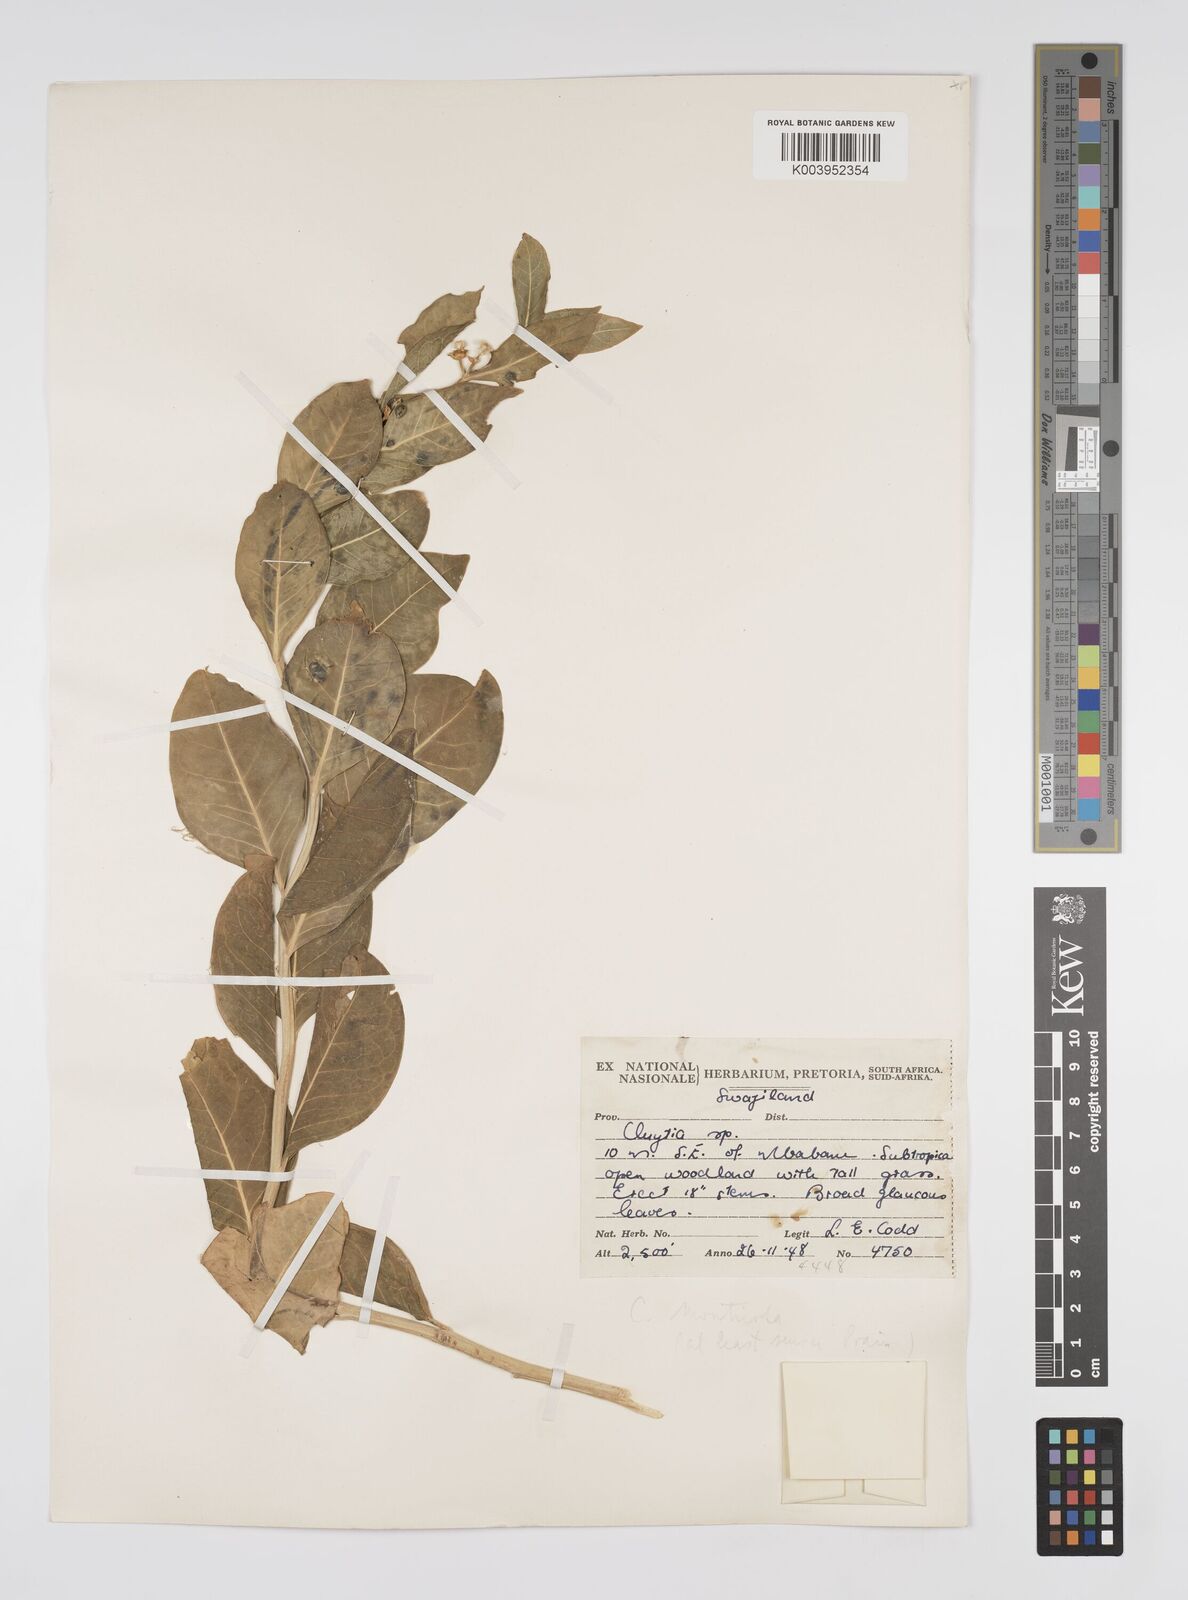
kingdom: Plantae
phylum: Tracheophyta
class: Magnoliopsida
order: Malpighiales
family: Peraceae
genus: Clutia
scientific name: Clutia monticola
